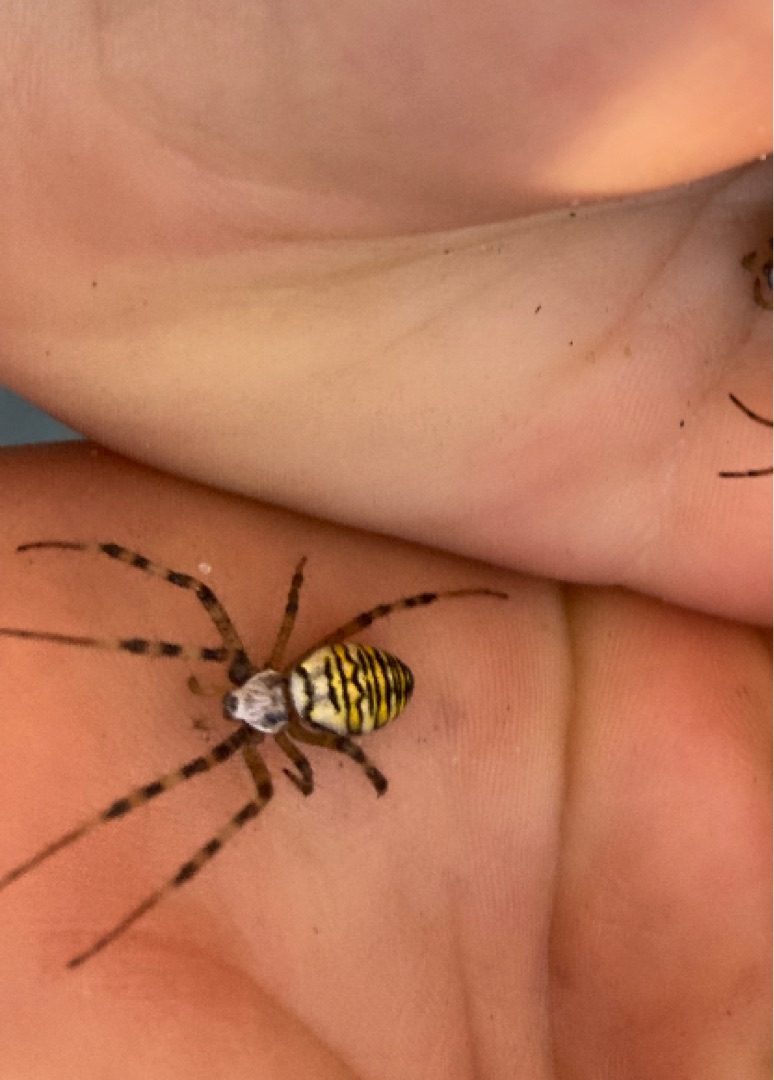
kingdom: Animalia
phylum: Arthropoda
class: Arachnida
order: Araneae
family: Araneidae
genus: Argiope
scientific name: Argiope bruennichi
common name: Hvepseedderkop
